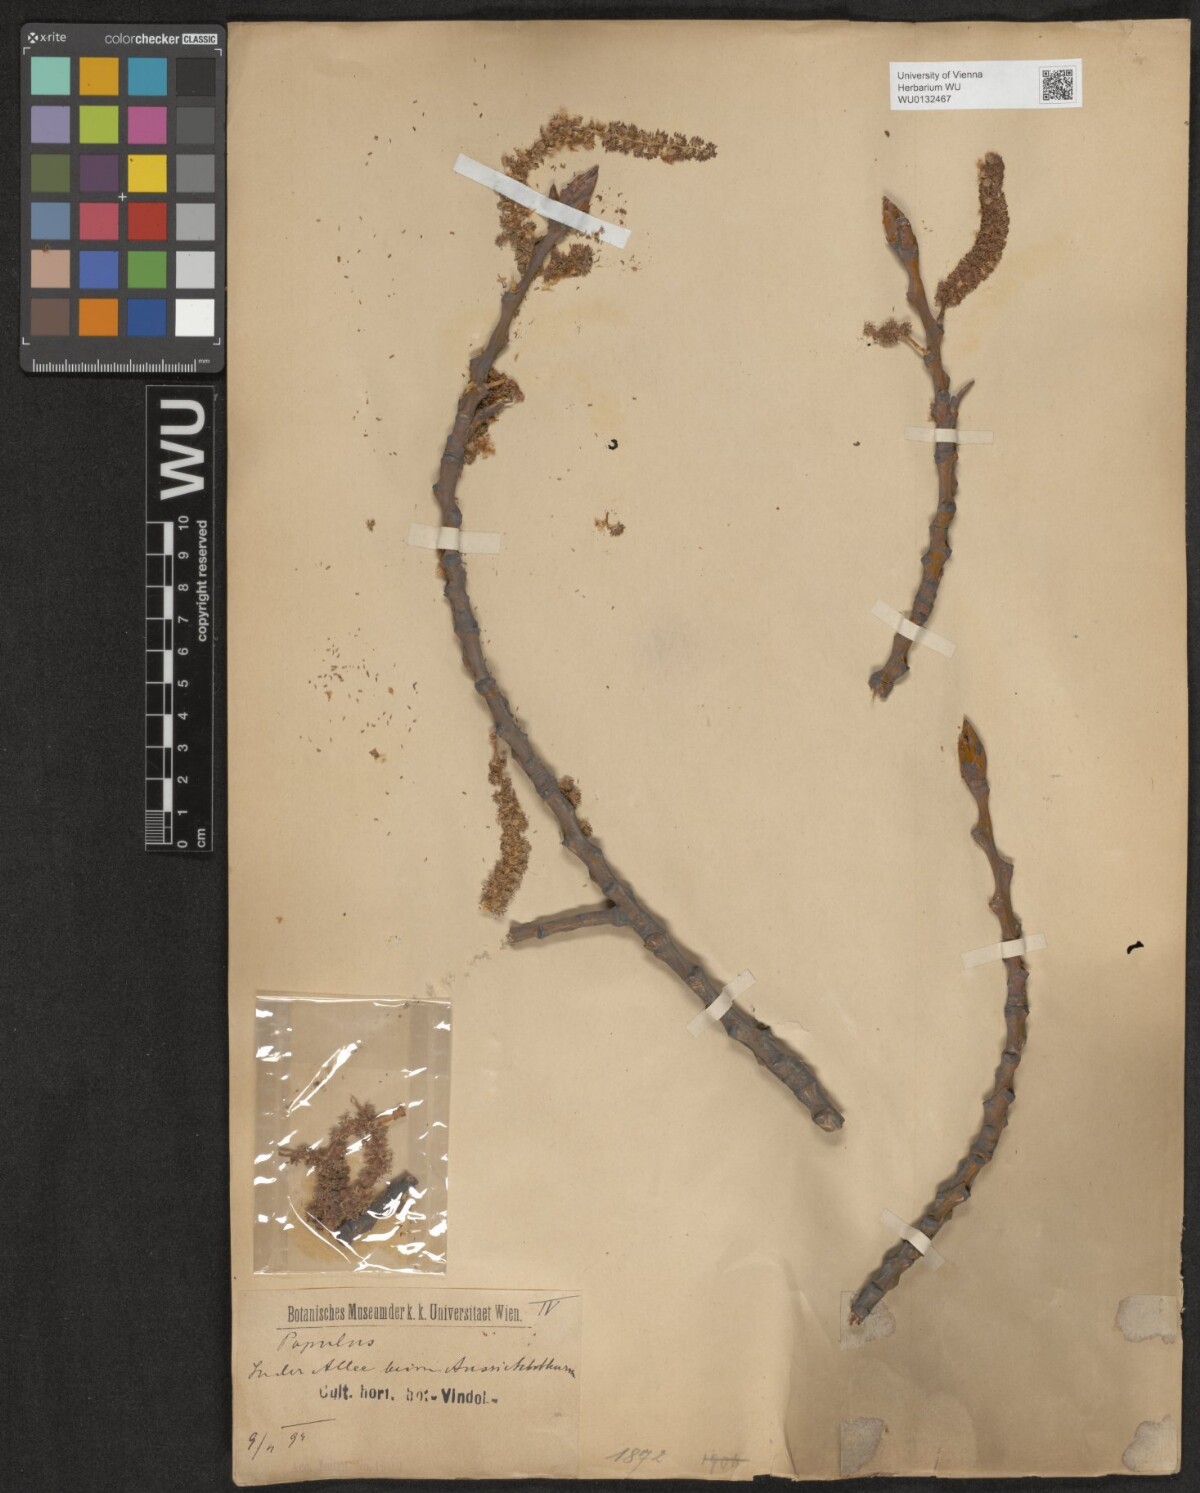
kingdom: Plantae
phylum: Tracheophyta
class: Magnoliopsida
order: Malpighiales
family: Salicaceae
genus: Populus
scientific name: Populus
